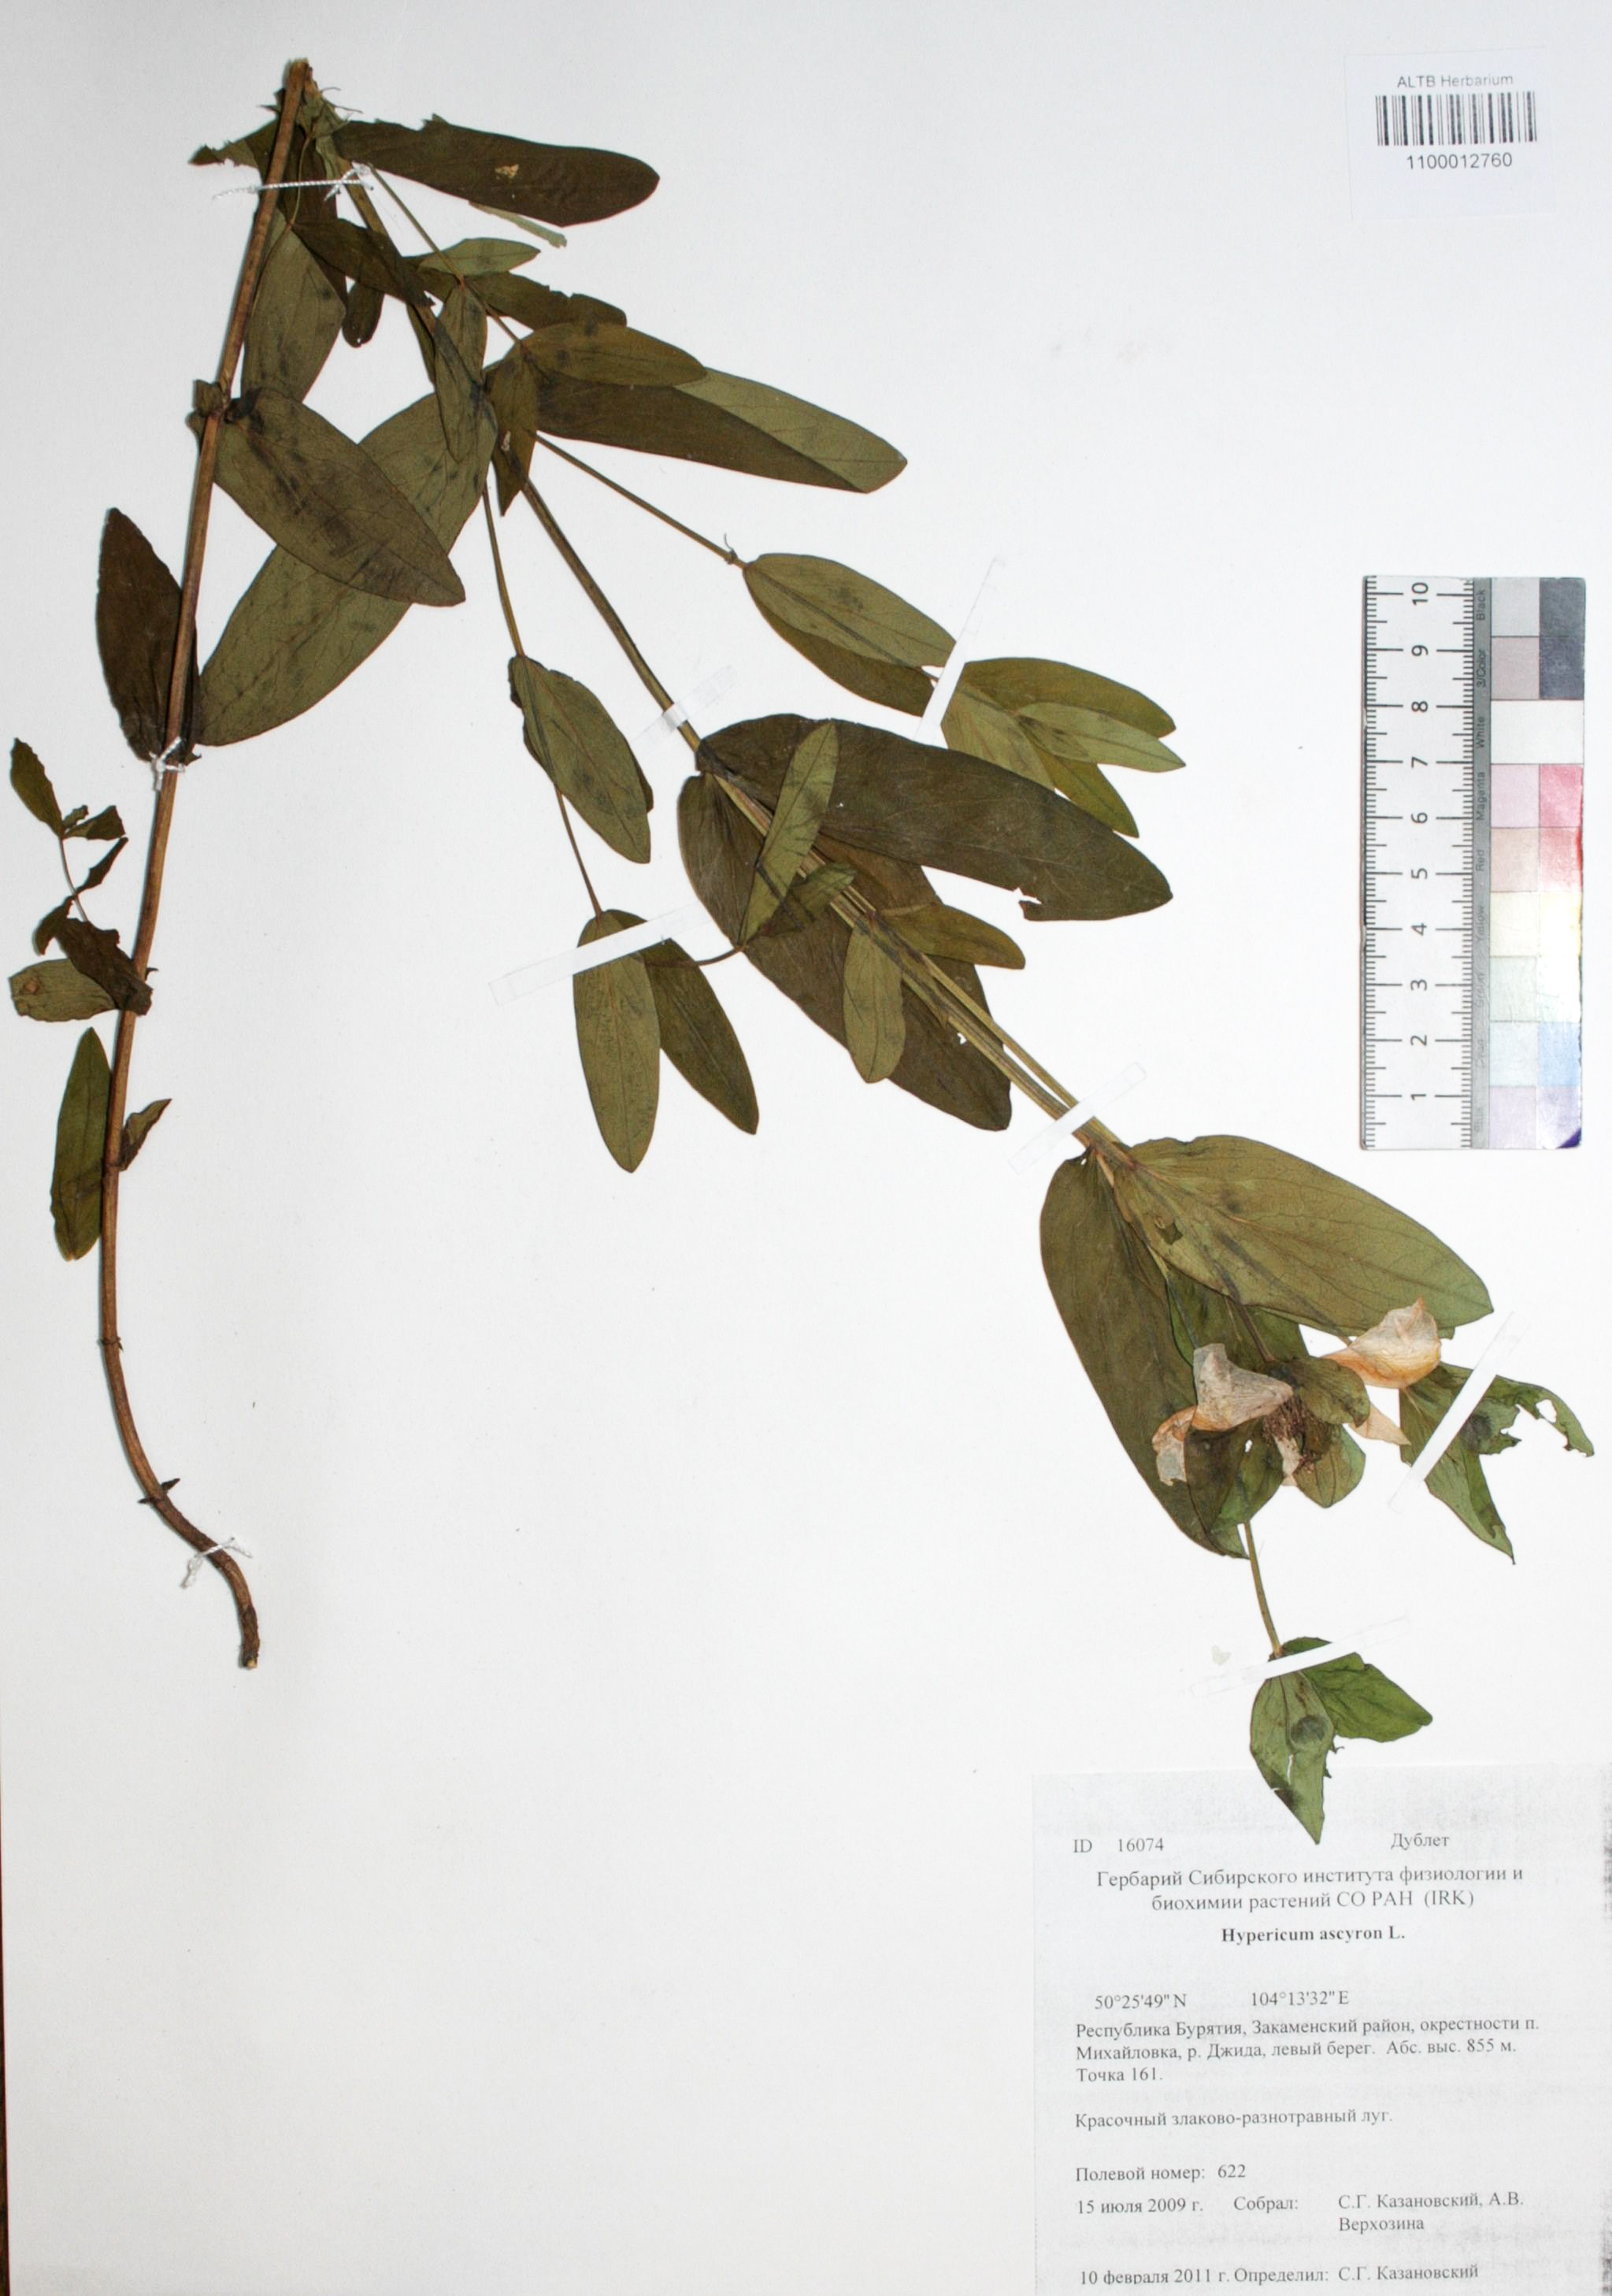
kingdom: Plantae
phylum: Tracheophyta
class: Magnoliopsida
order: Malpighiales
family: Hypericaceae
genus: Hypericum
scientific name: Hypericum ascyron
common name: Giant st. john's-wort
